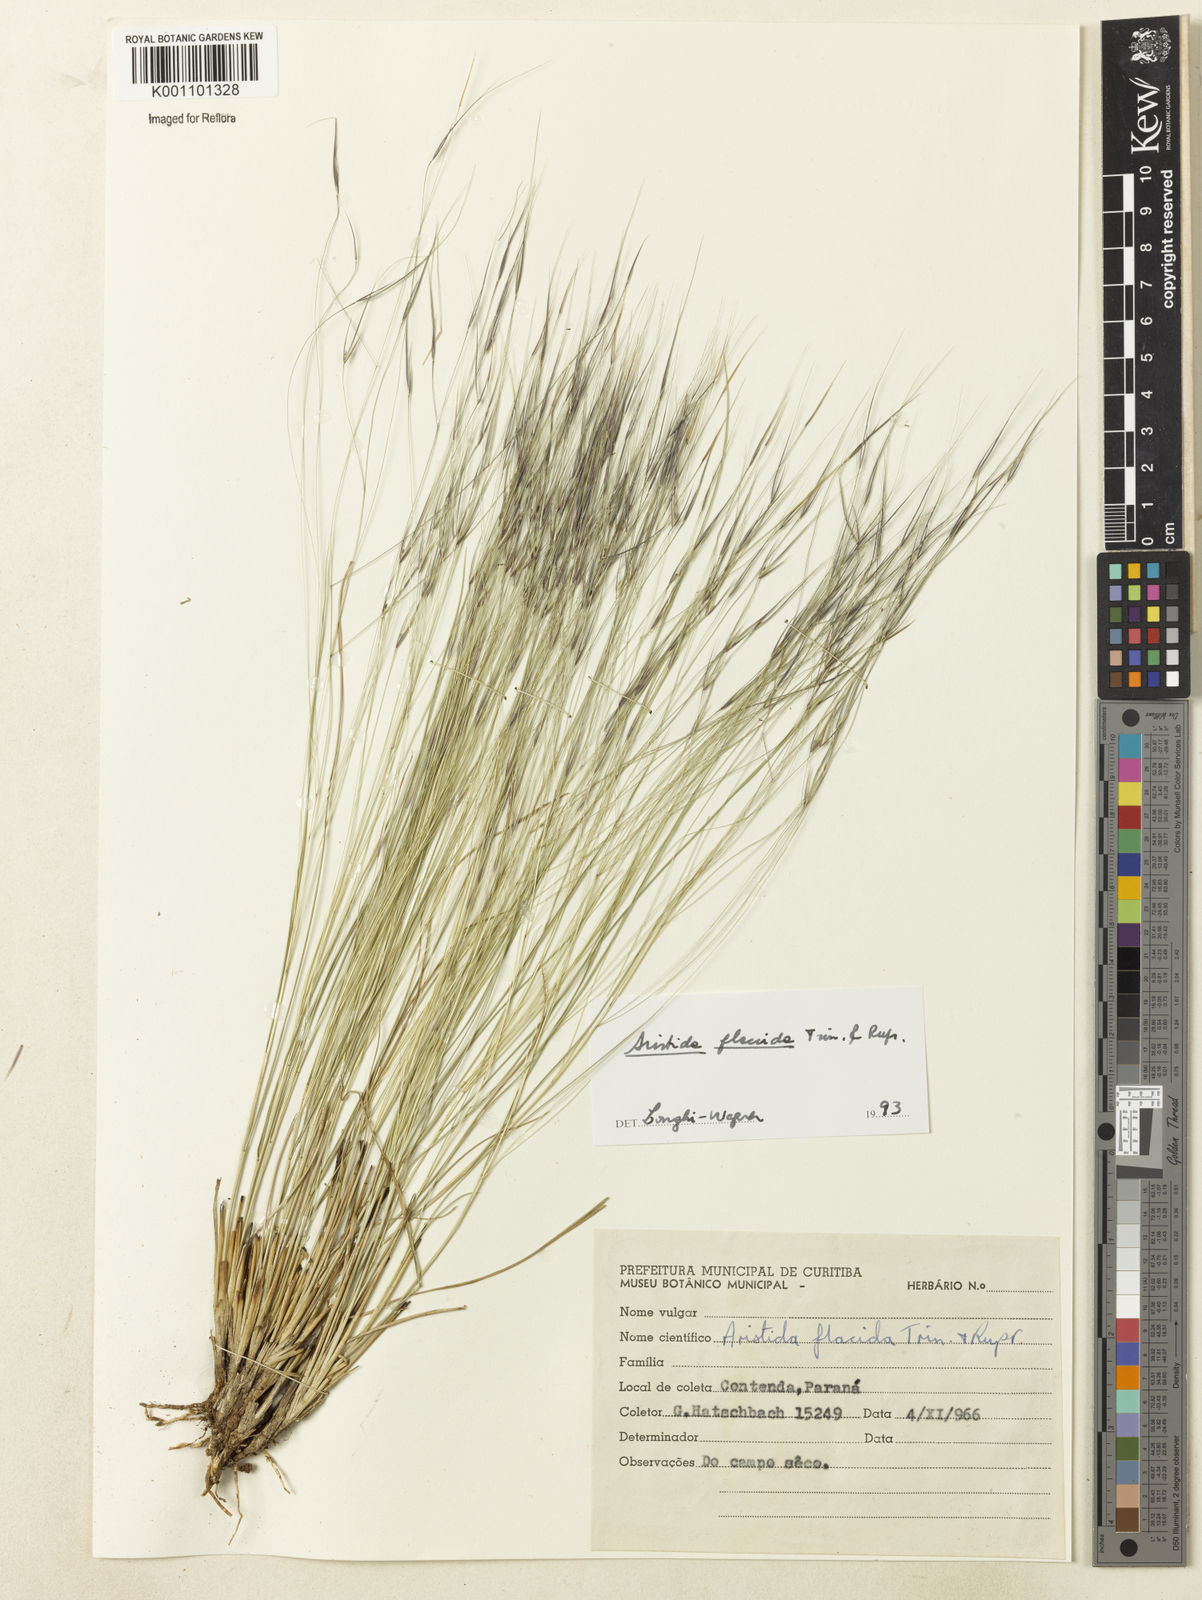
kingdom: Plantae
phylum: Tracheophyta
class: Liliopsida
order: Poales
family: Poaceae
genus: Aristida
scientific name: Aristida flaccida
